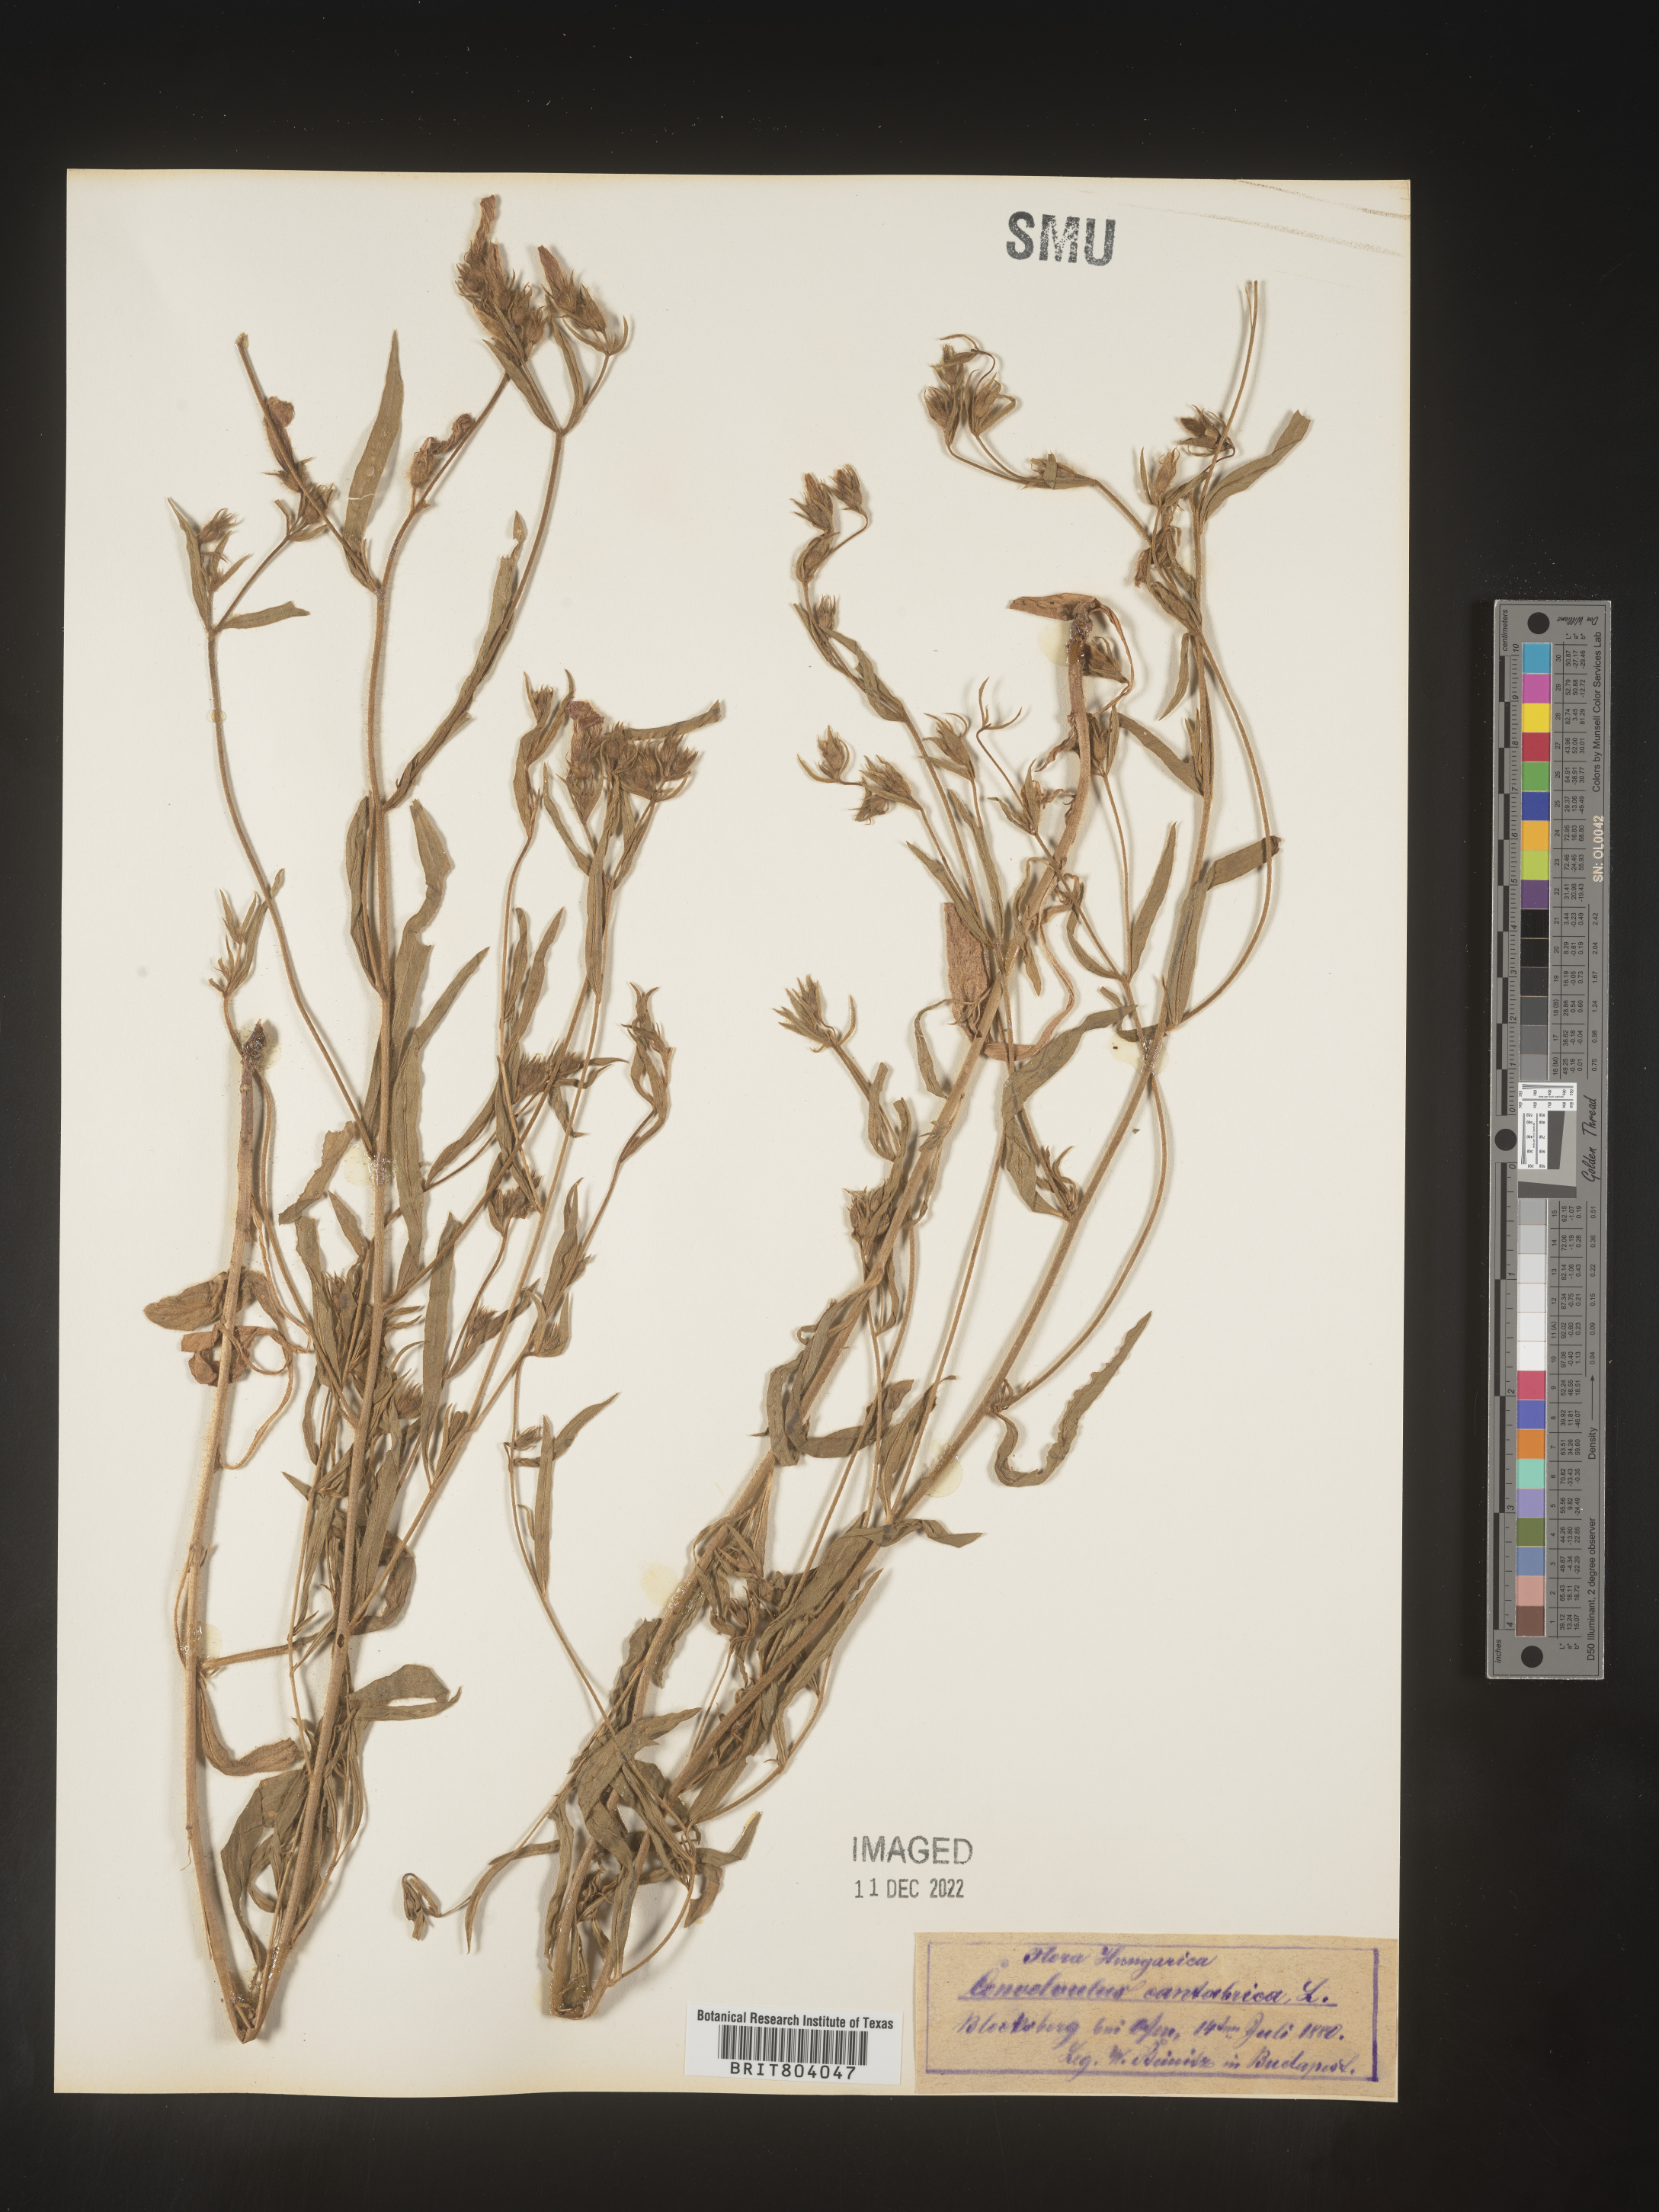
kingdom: Plantae
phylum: Tracheophyta
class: Magnoliopsida
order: Solanales
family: Convolvulaceae
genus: Convolvulus
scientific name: Convolvulus
